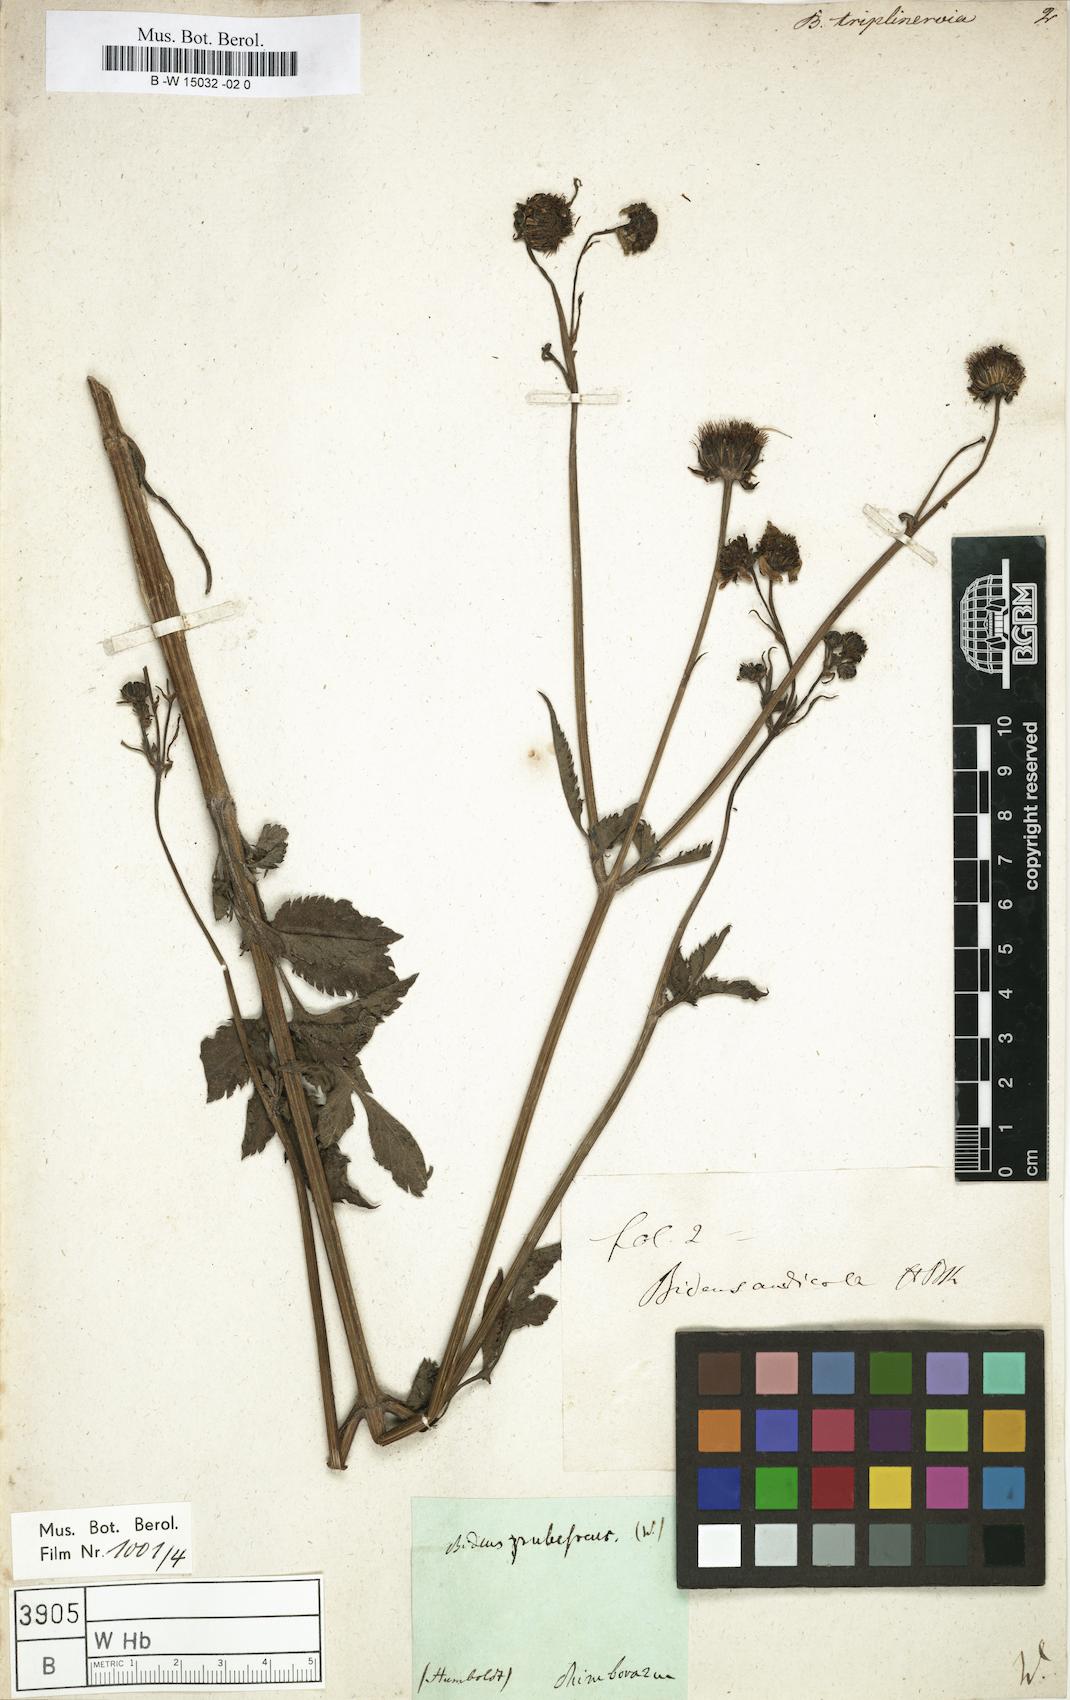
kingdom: Plantae
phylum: Tracheophyta
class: Magnoliopsida
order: Asterales
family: Asteraceae
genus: Bidens
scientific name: Bidens triplinervia
